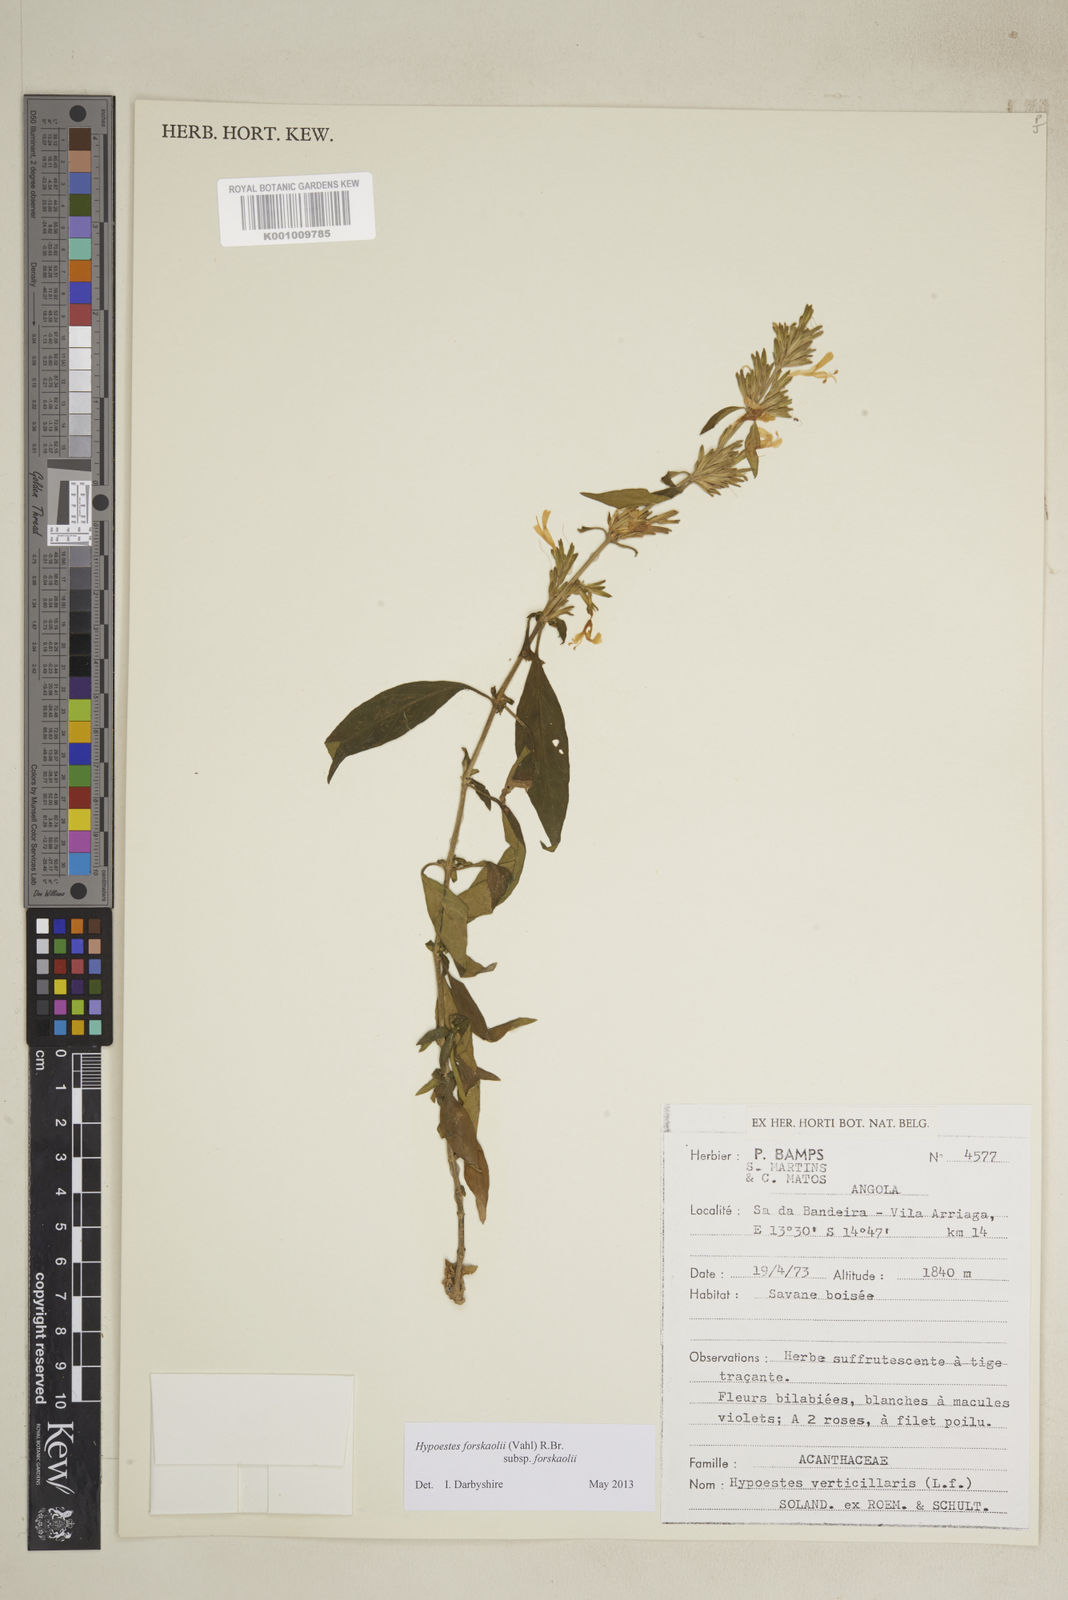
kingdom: Plantae
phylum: Tracheophyta
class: Magnoliopsida
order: Lamiales
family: Acanthaceae
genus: Hypoestes
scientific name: Hypoestes forskaolii
